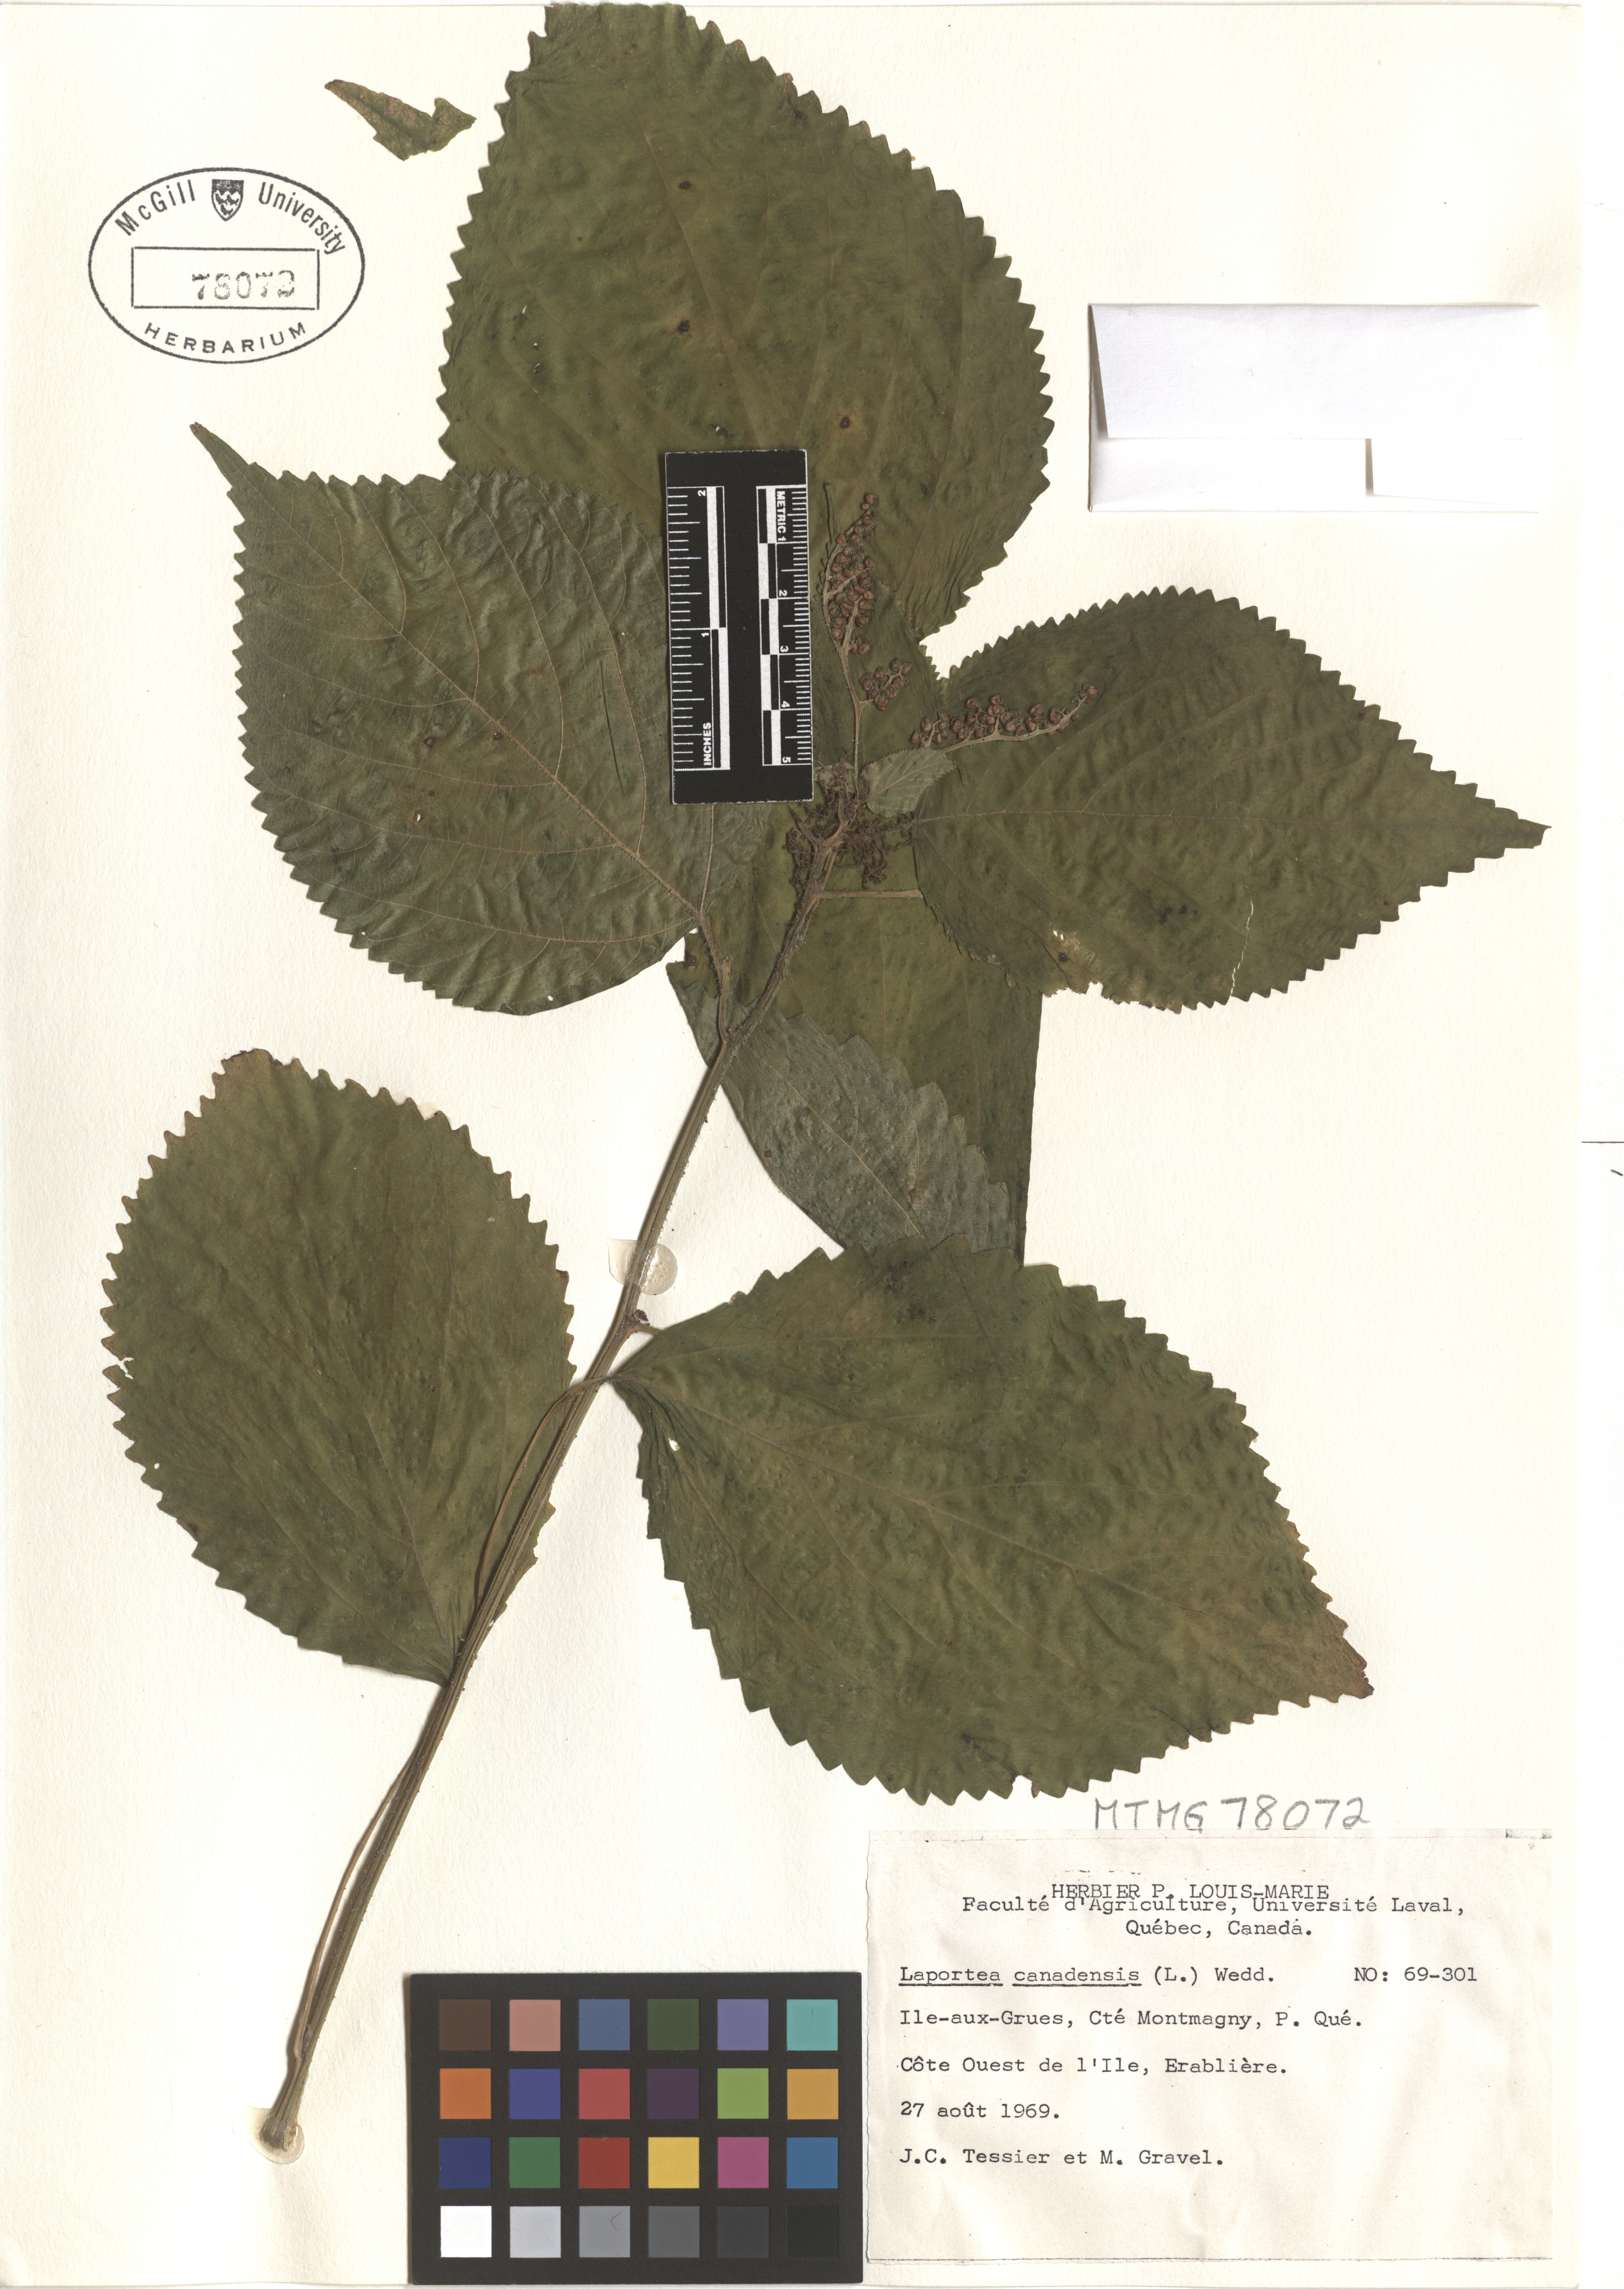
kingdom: Plantae
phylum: Tracheophyta
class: Magnoliopsida
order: Rosales
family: Urticaceae
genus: Laportea
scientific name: Laportea canadensis
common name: Canada nettle
